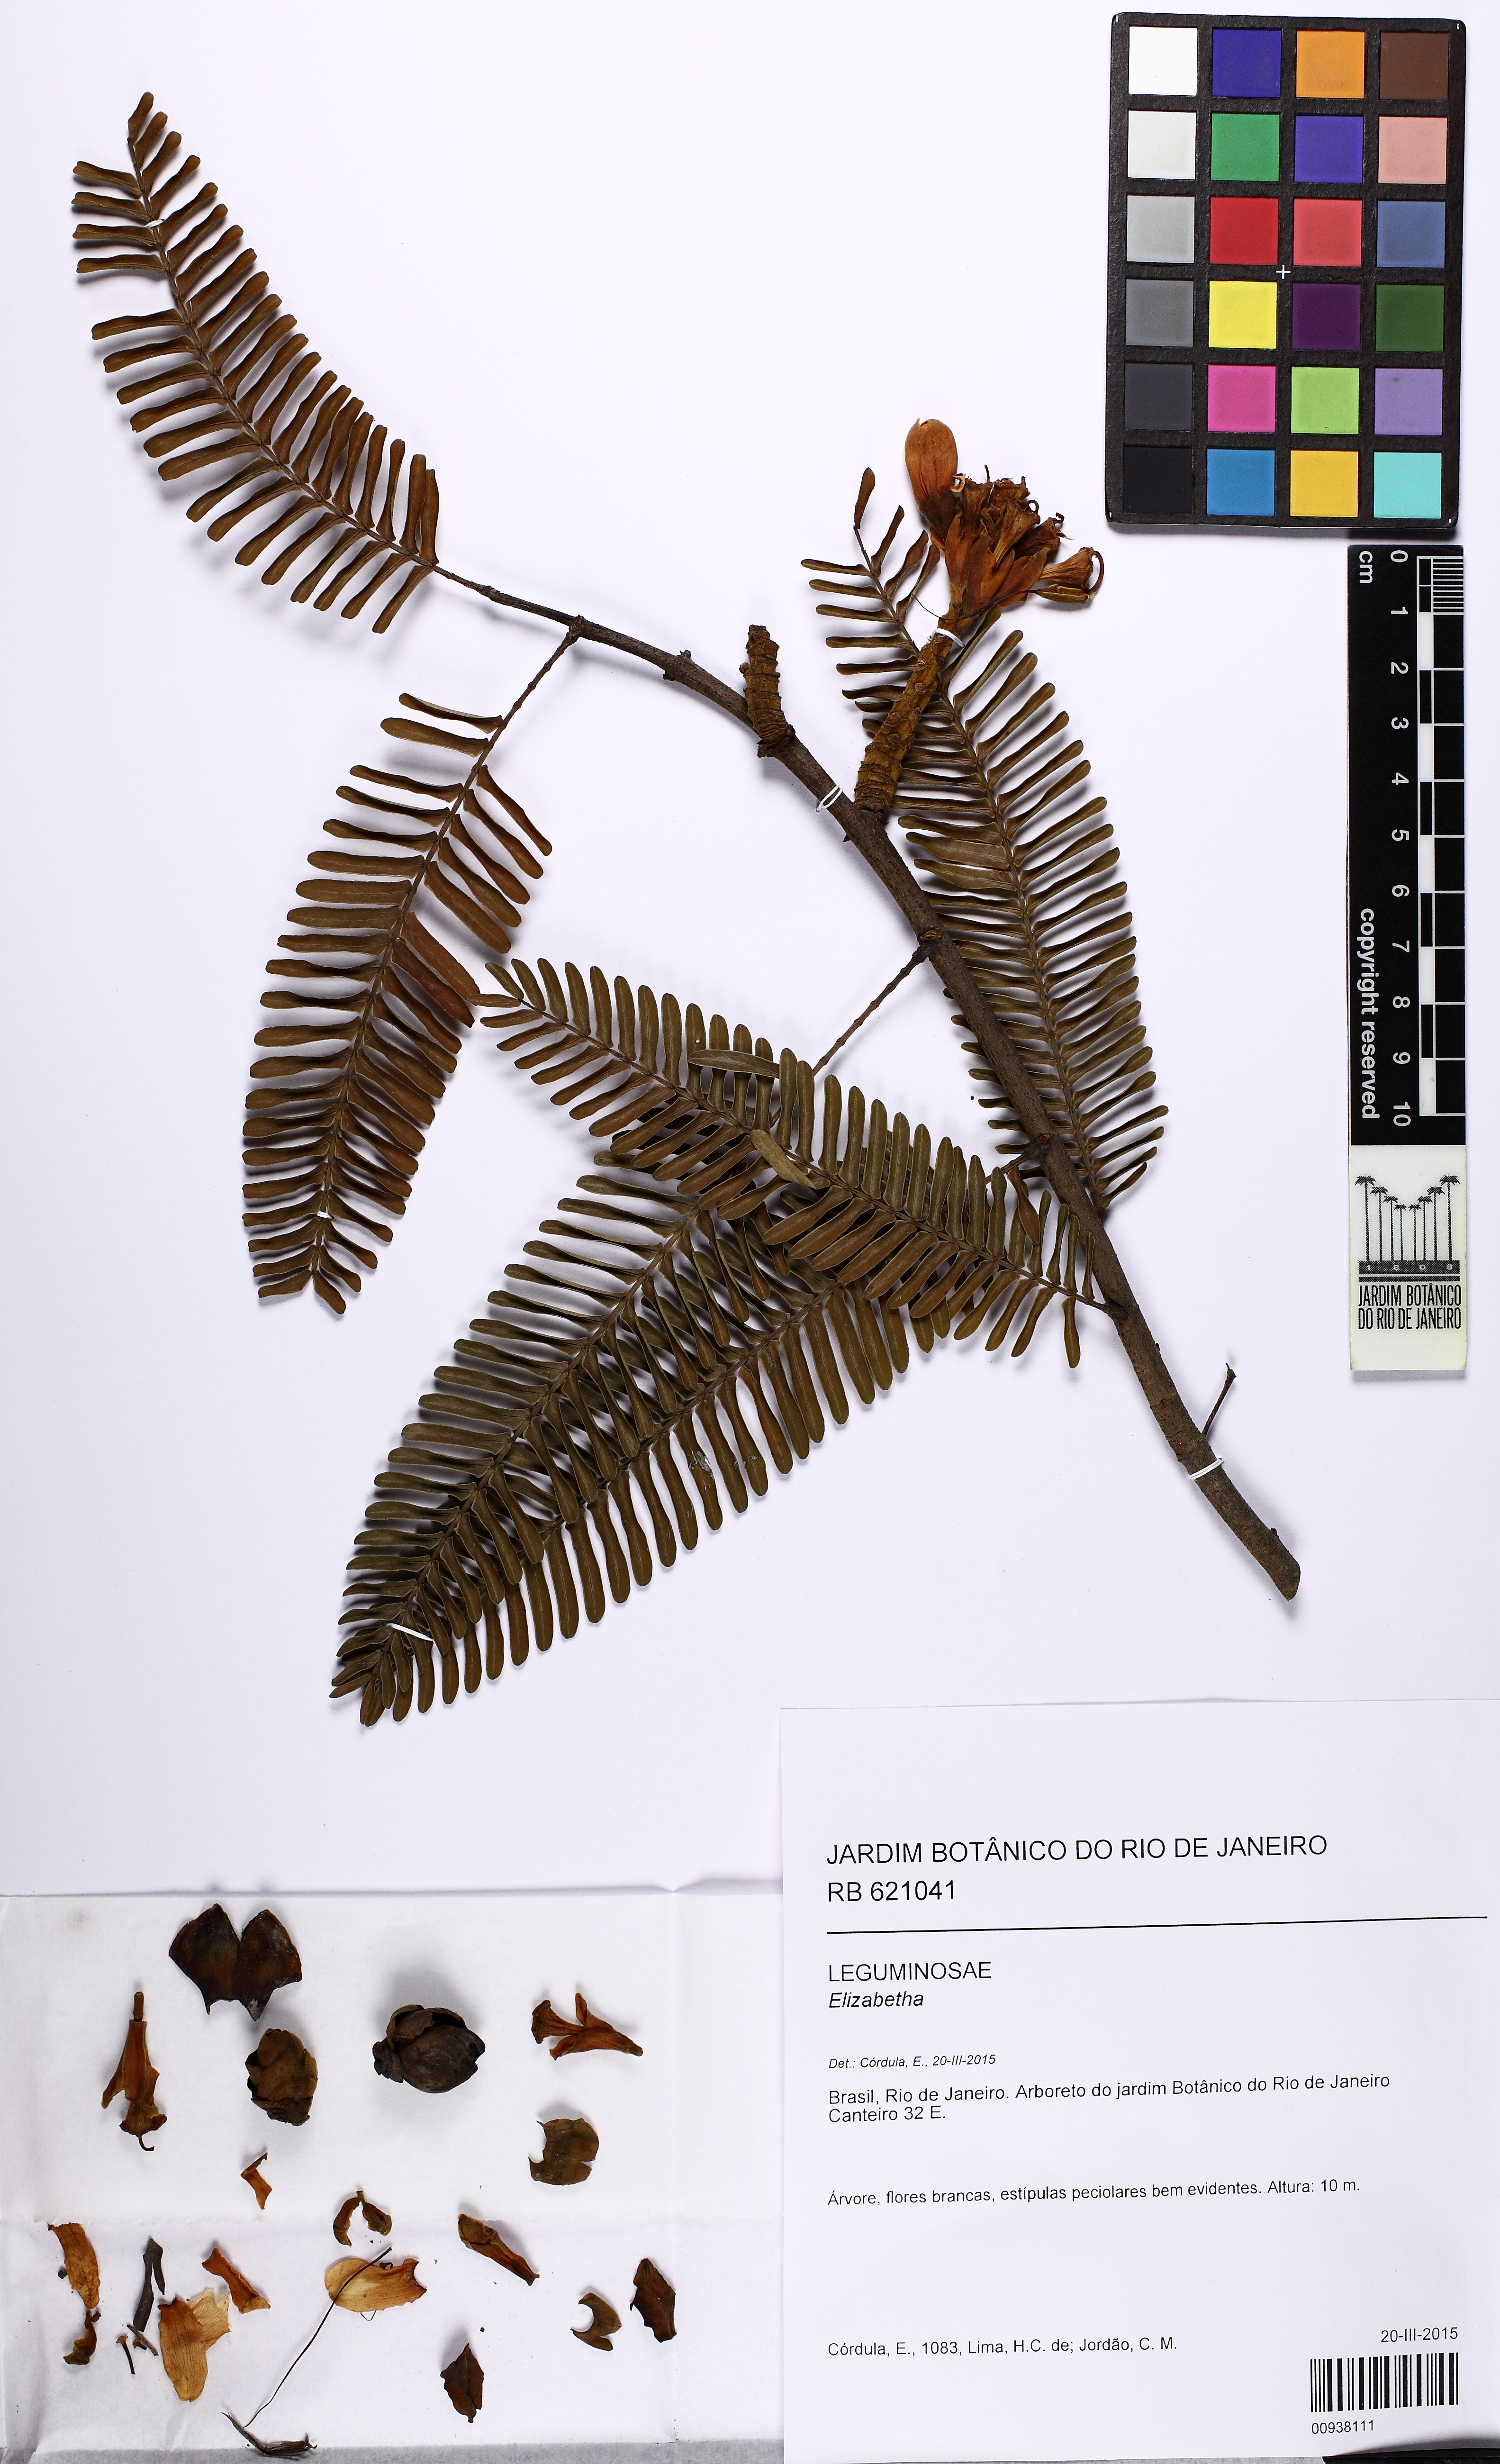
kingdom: Plantae
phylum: Tracheophyta
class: Magnoliopsida
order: Fabales
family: Fabaceae
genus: Paloue
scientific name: Paloue paraensis
